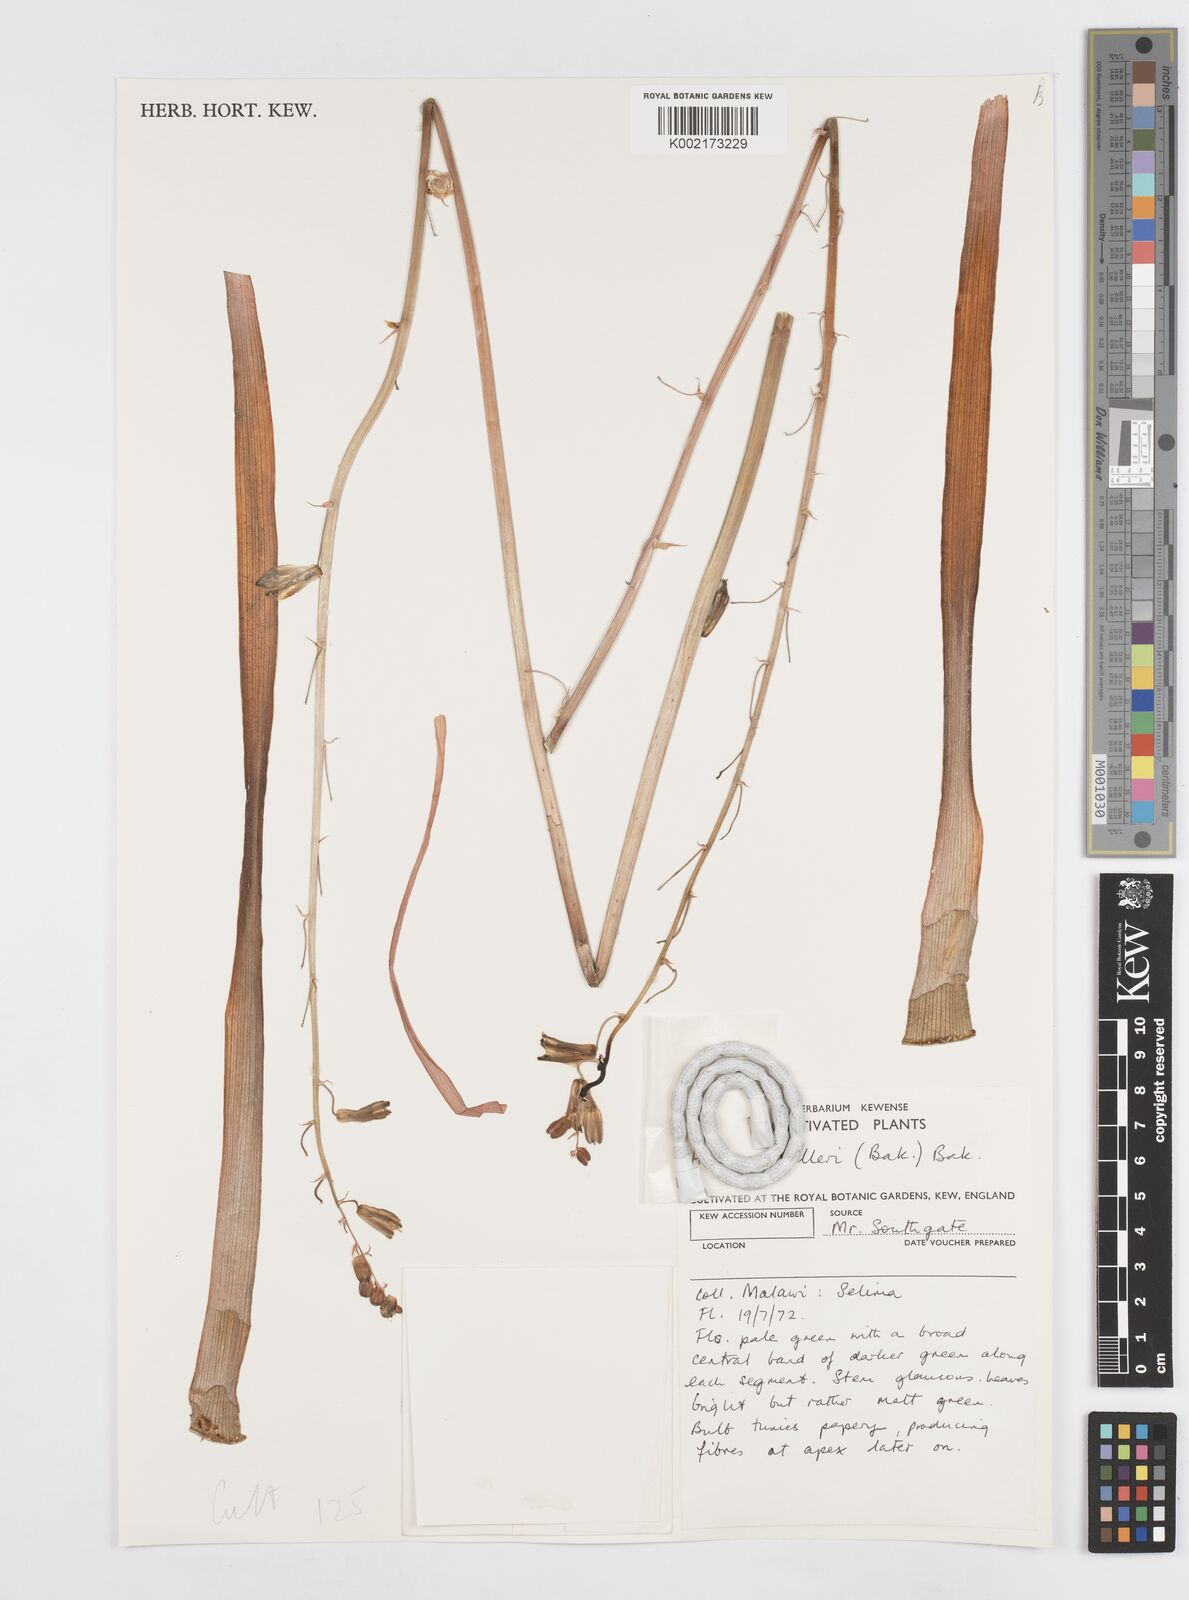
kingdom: Plantae
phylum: Tracheophyta
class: Liliopsida
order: Asparagales
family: Asparagaceae
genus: Albuca
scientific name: Albuca abyssinica
